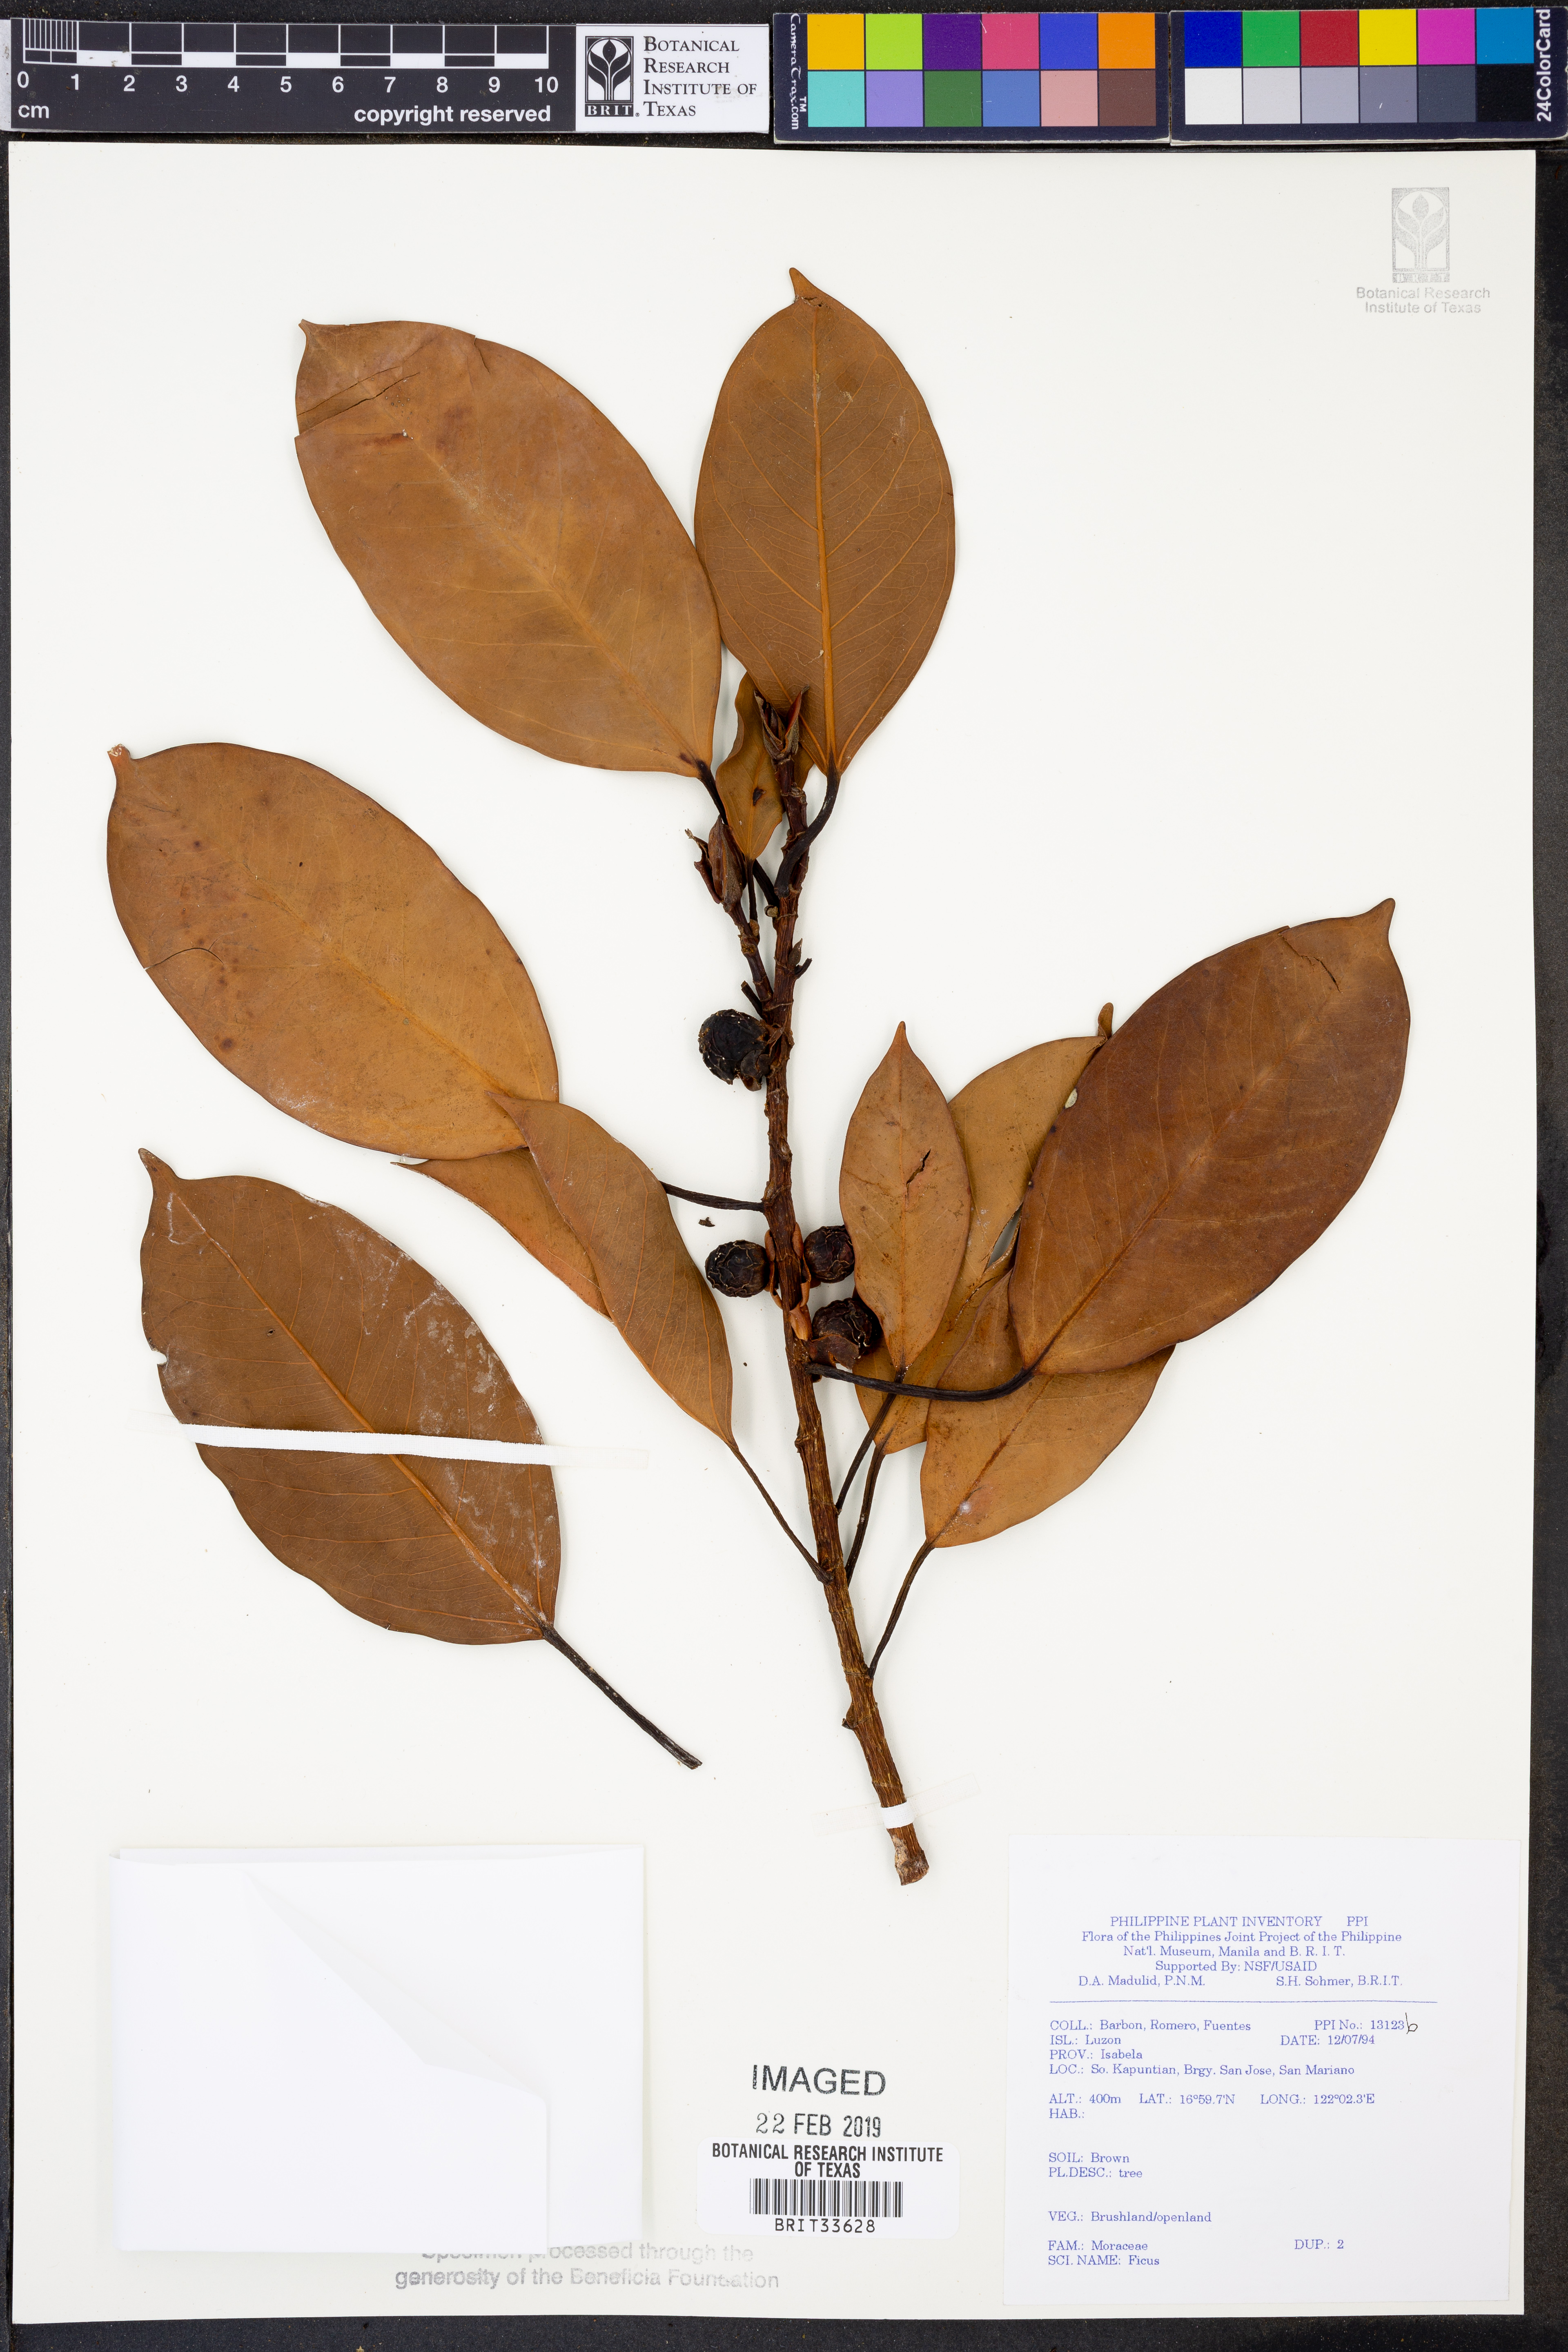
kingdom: Plantae
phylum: Tracheophyta
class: Magnoliopsida
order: Rosales
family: Moraceae
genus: Ficus
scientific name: Ficus
